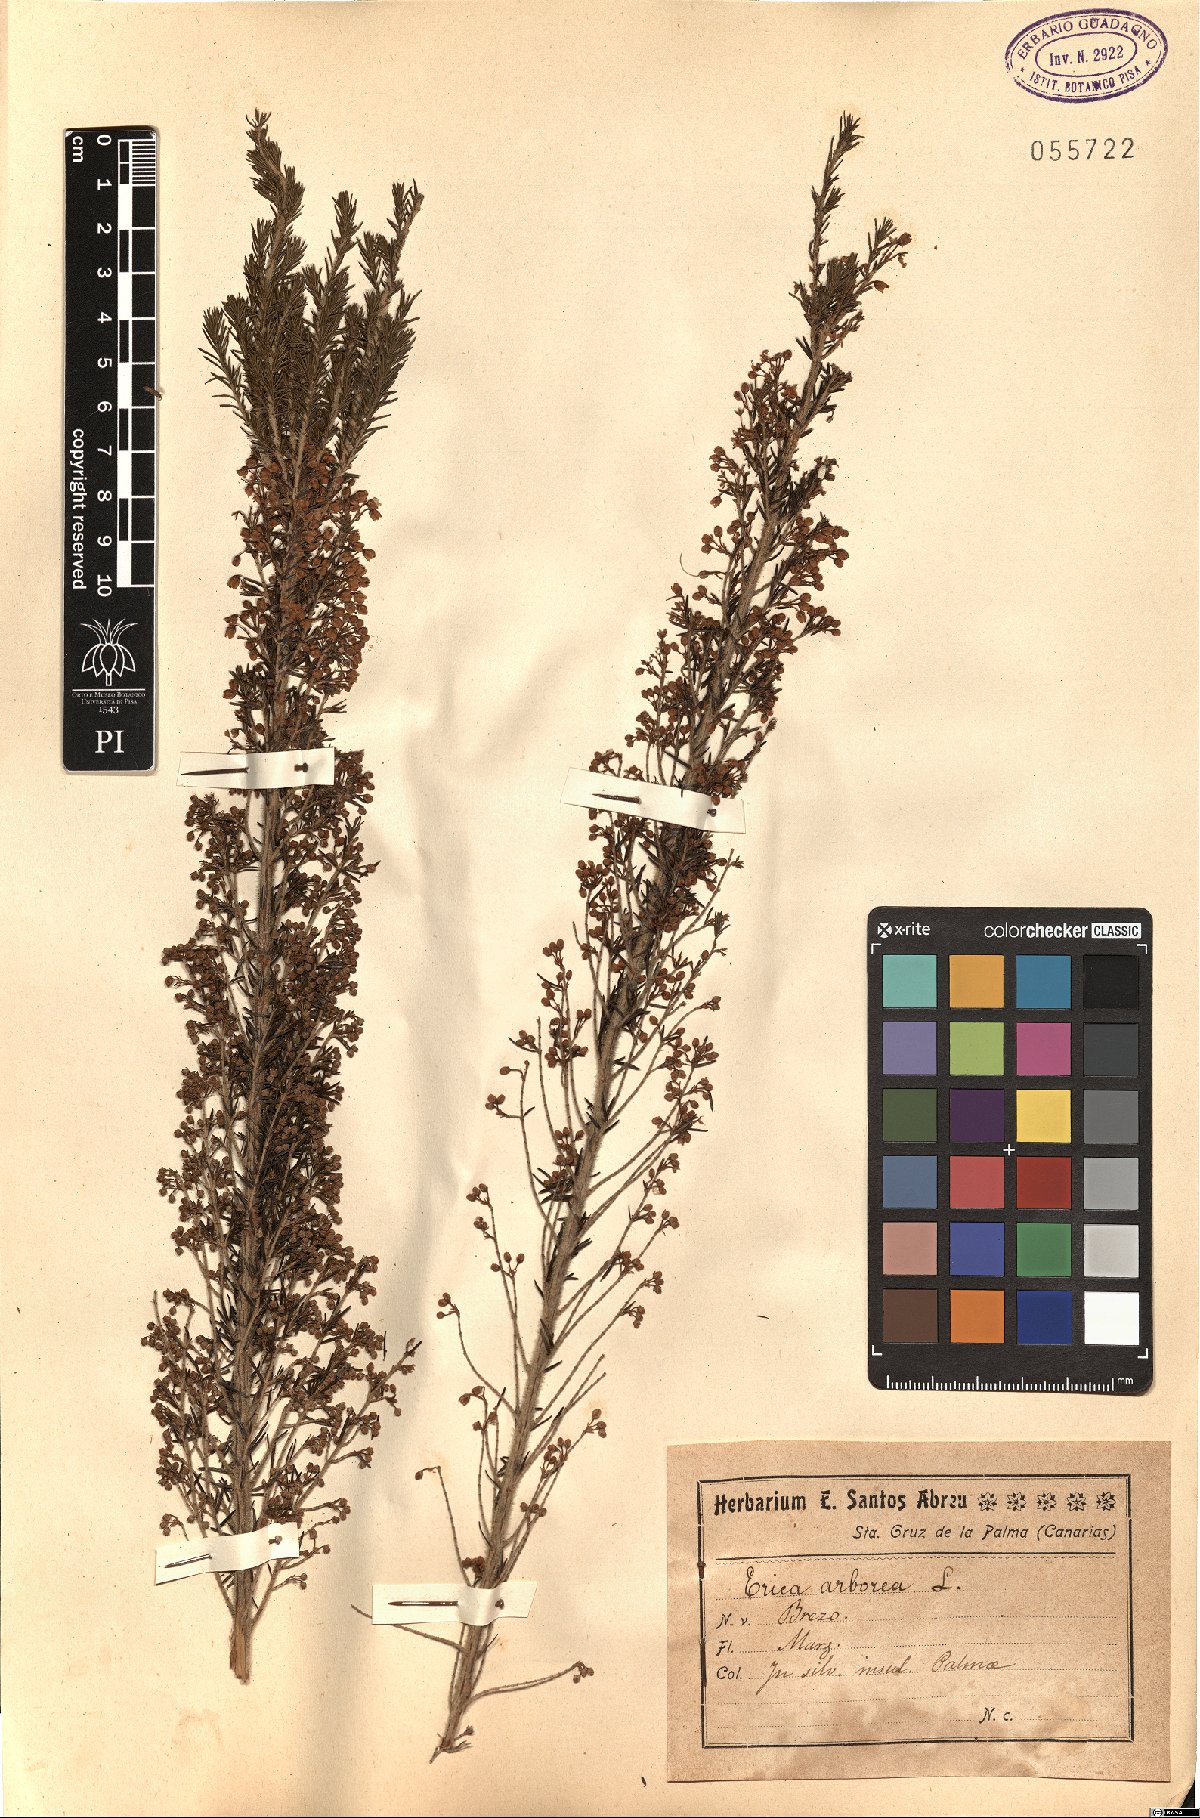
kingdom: Plantae
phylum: Tracheophyta
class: Magnoliopsida
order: Ericales
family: Ericaceae
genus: Erica
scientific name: Erica arborea
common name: Tree heath
